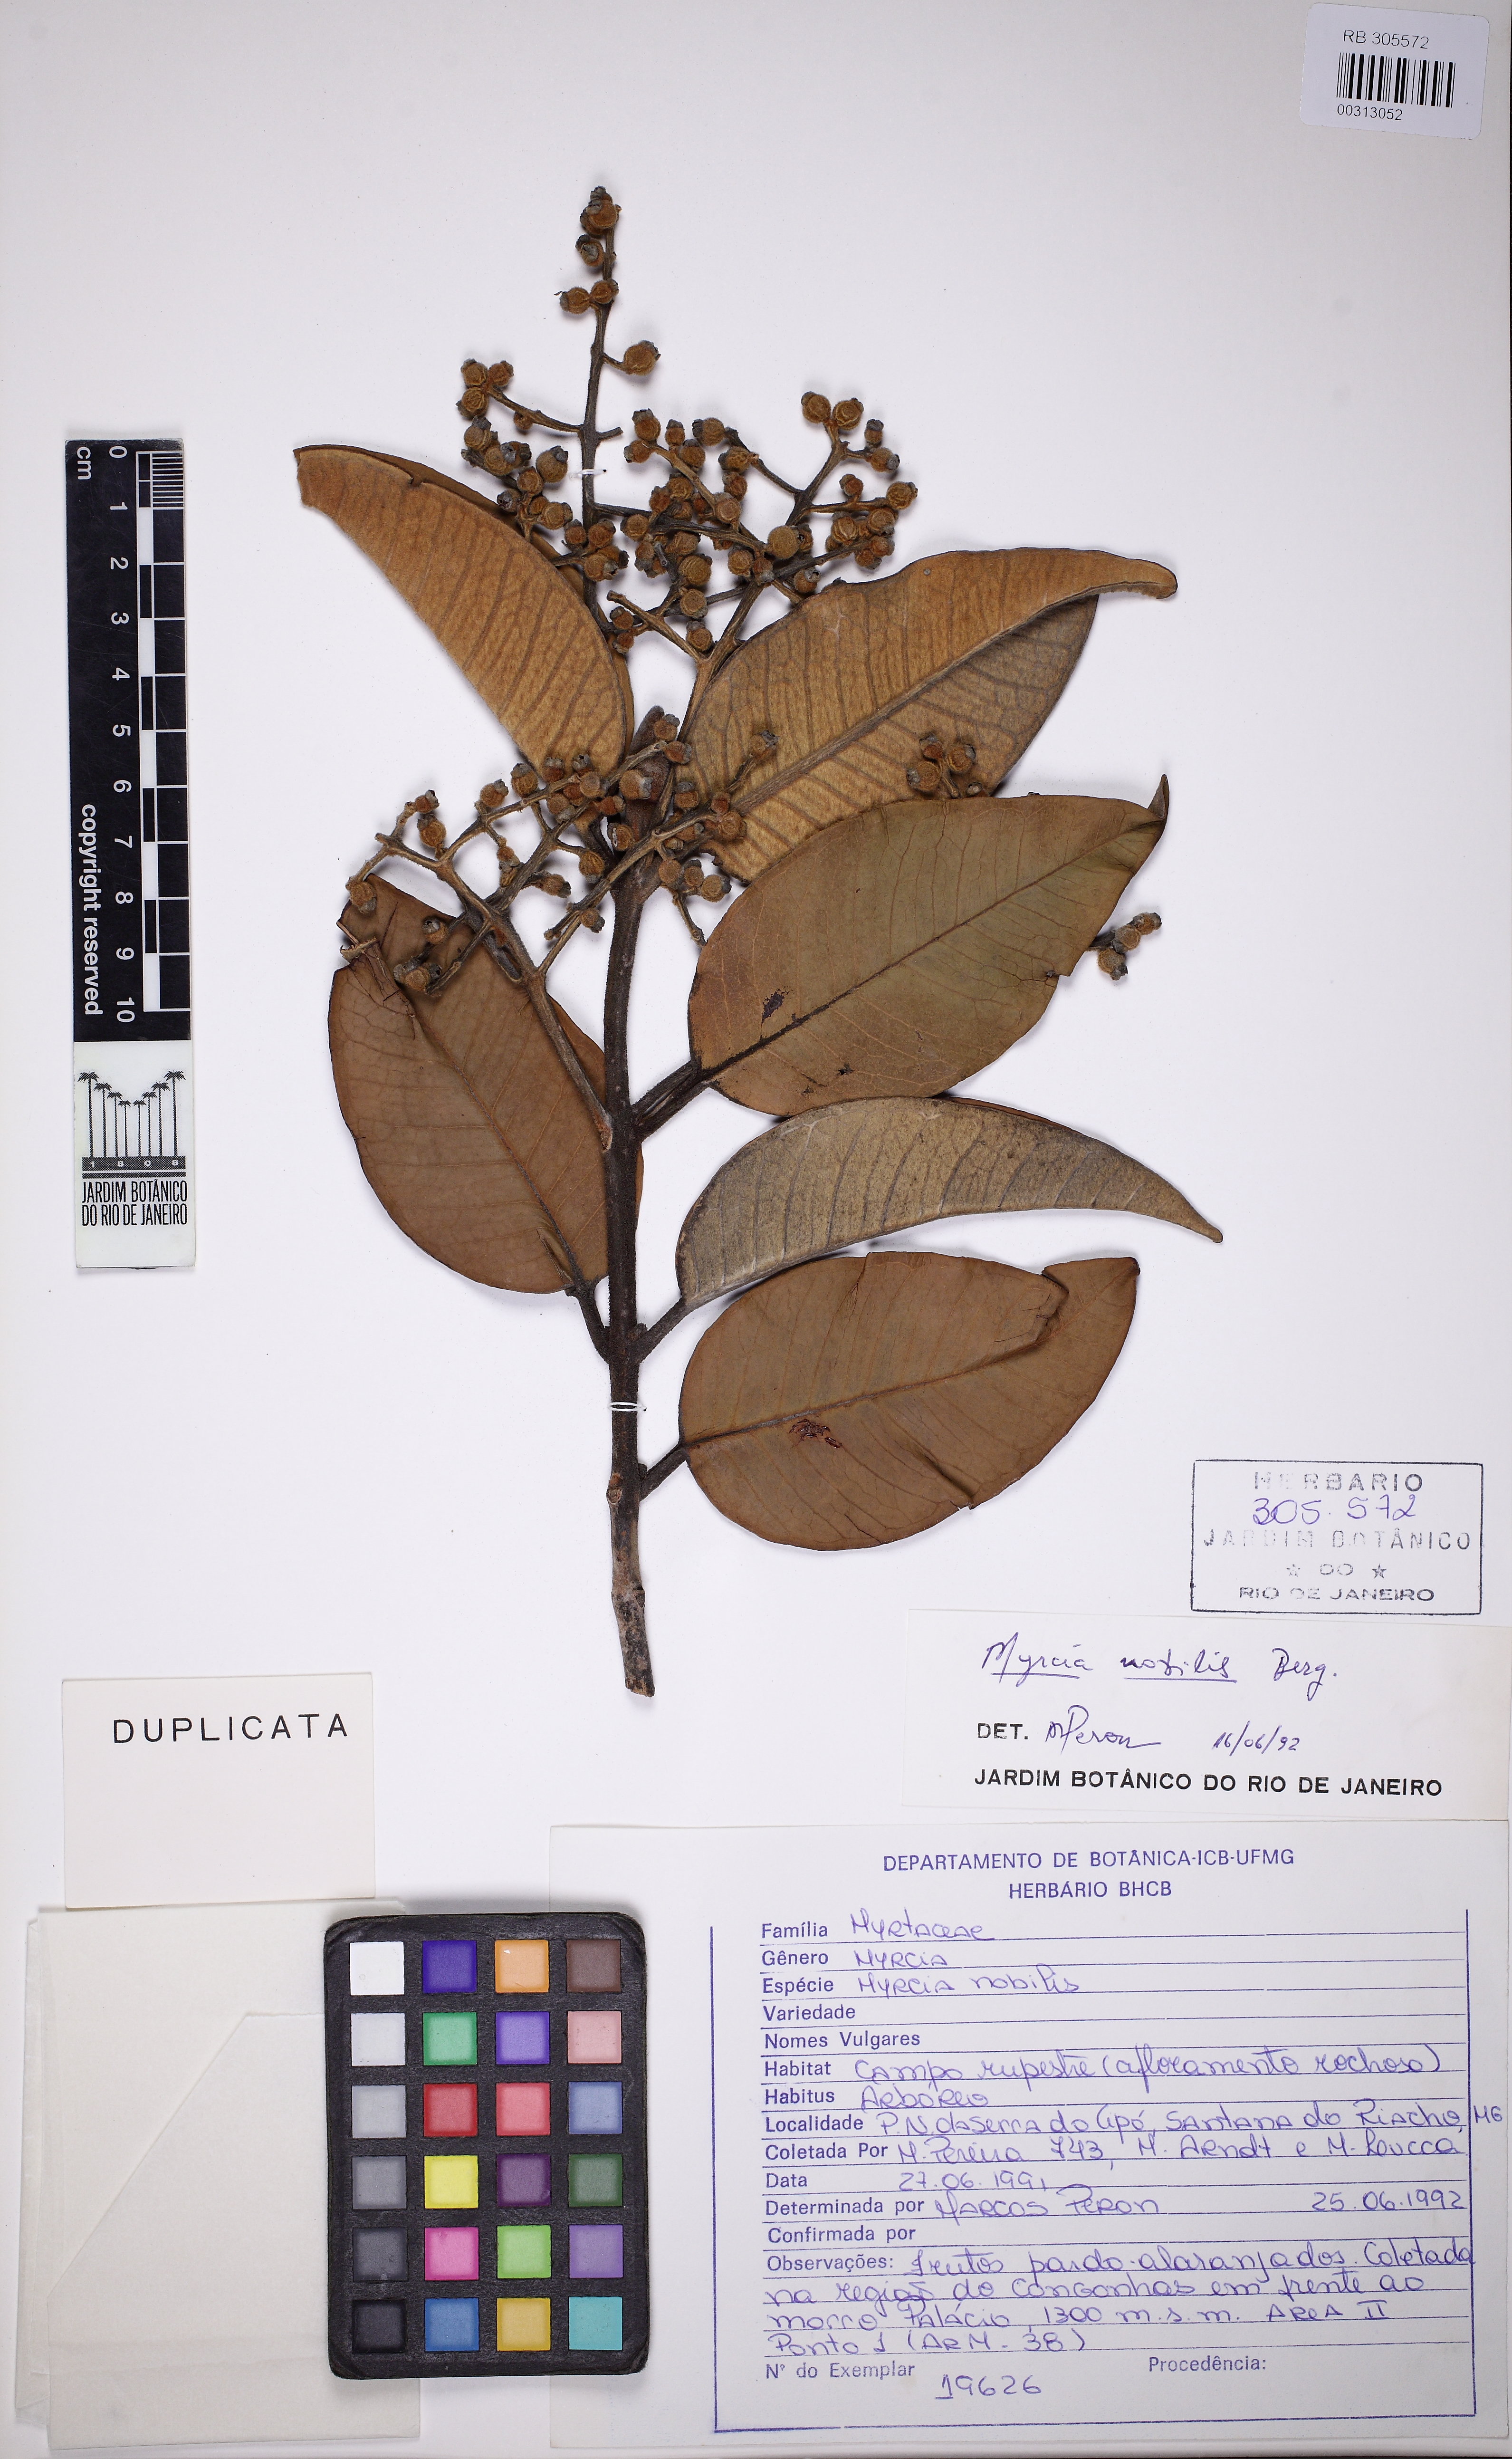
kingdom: Plantae
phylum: Tracheophyta
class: Magnoliopsida
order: Myrtales
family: Myrtaceae
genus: Myrcia
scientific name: Myrcia nobilis
